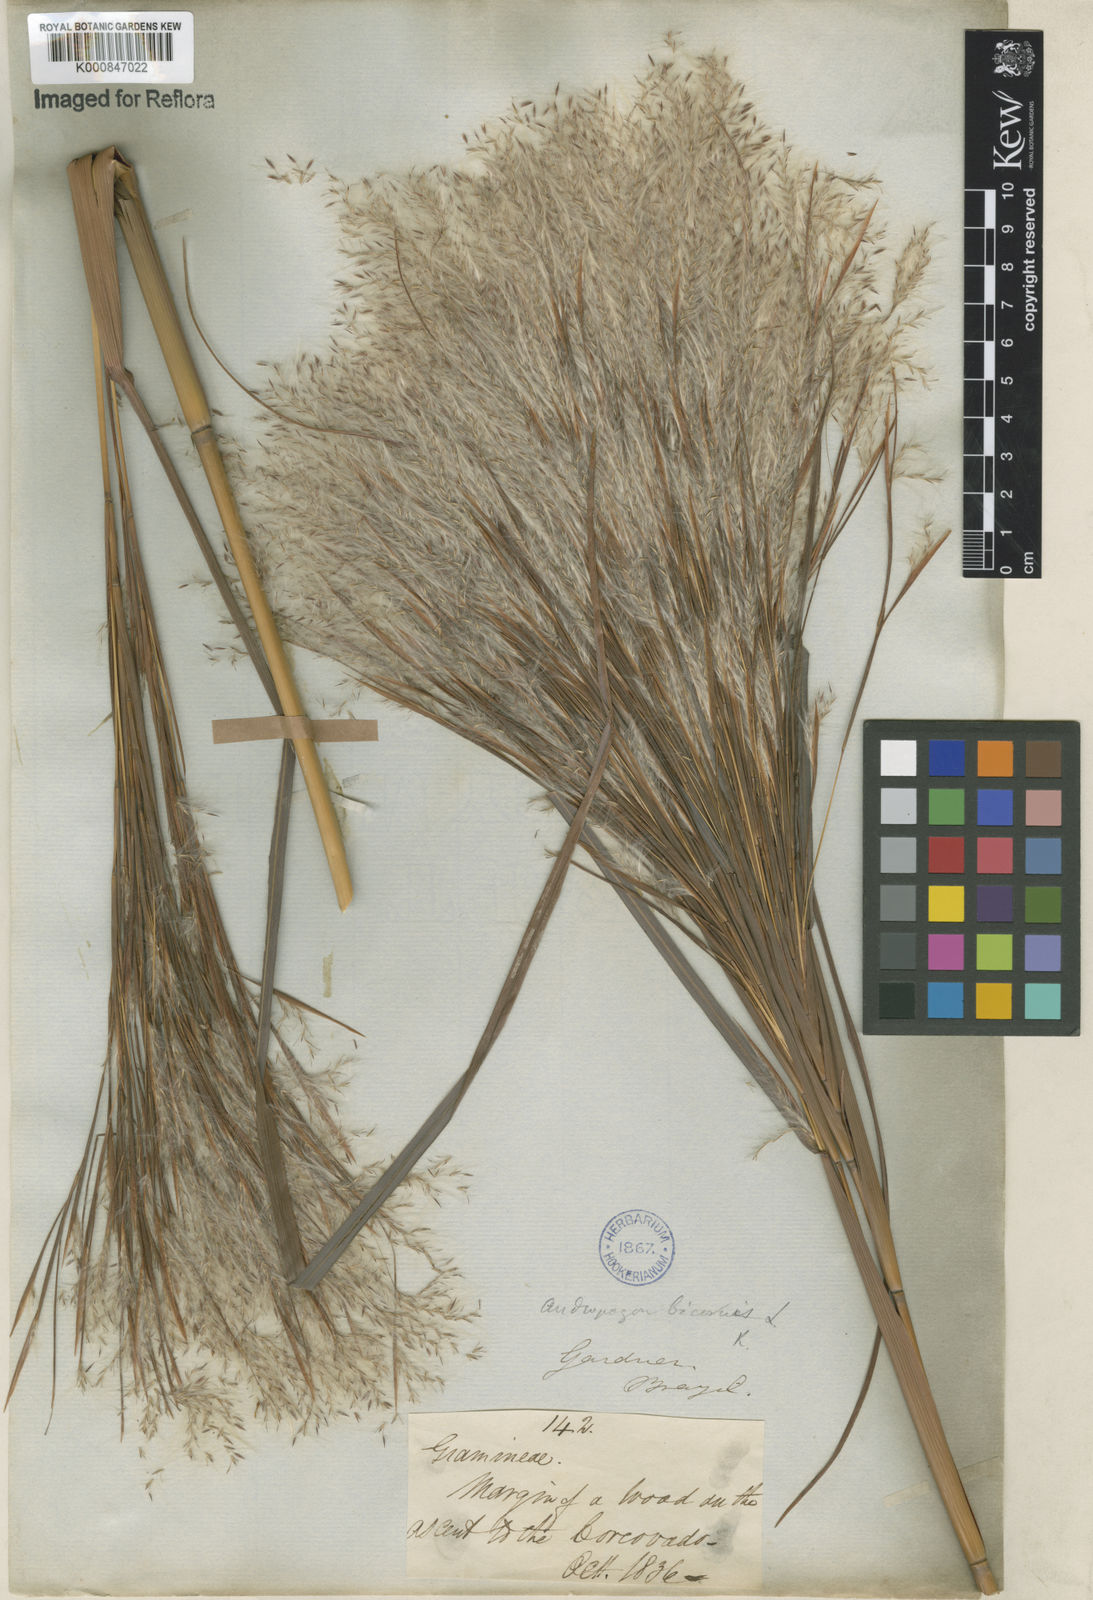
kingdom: Plantae
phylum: Tracheophyta
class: Liliopsida
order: Poales
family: Poaceae
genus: Andropogon
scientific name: Andropogon
